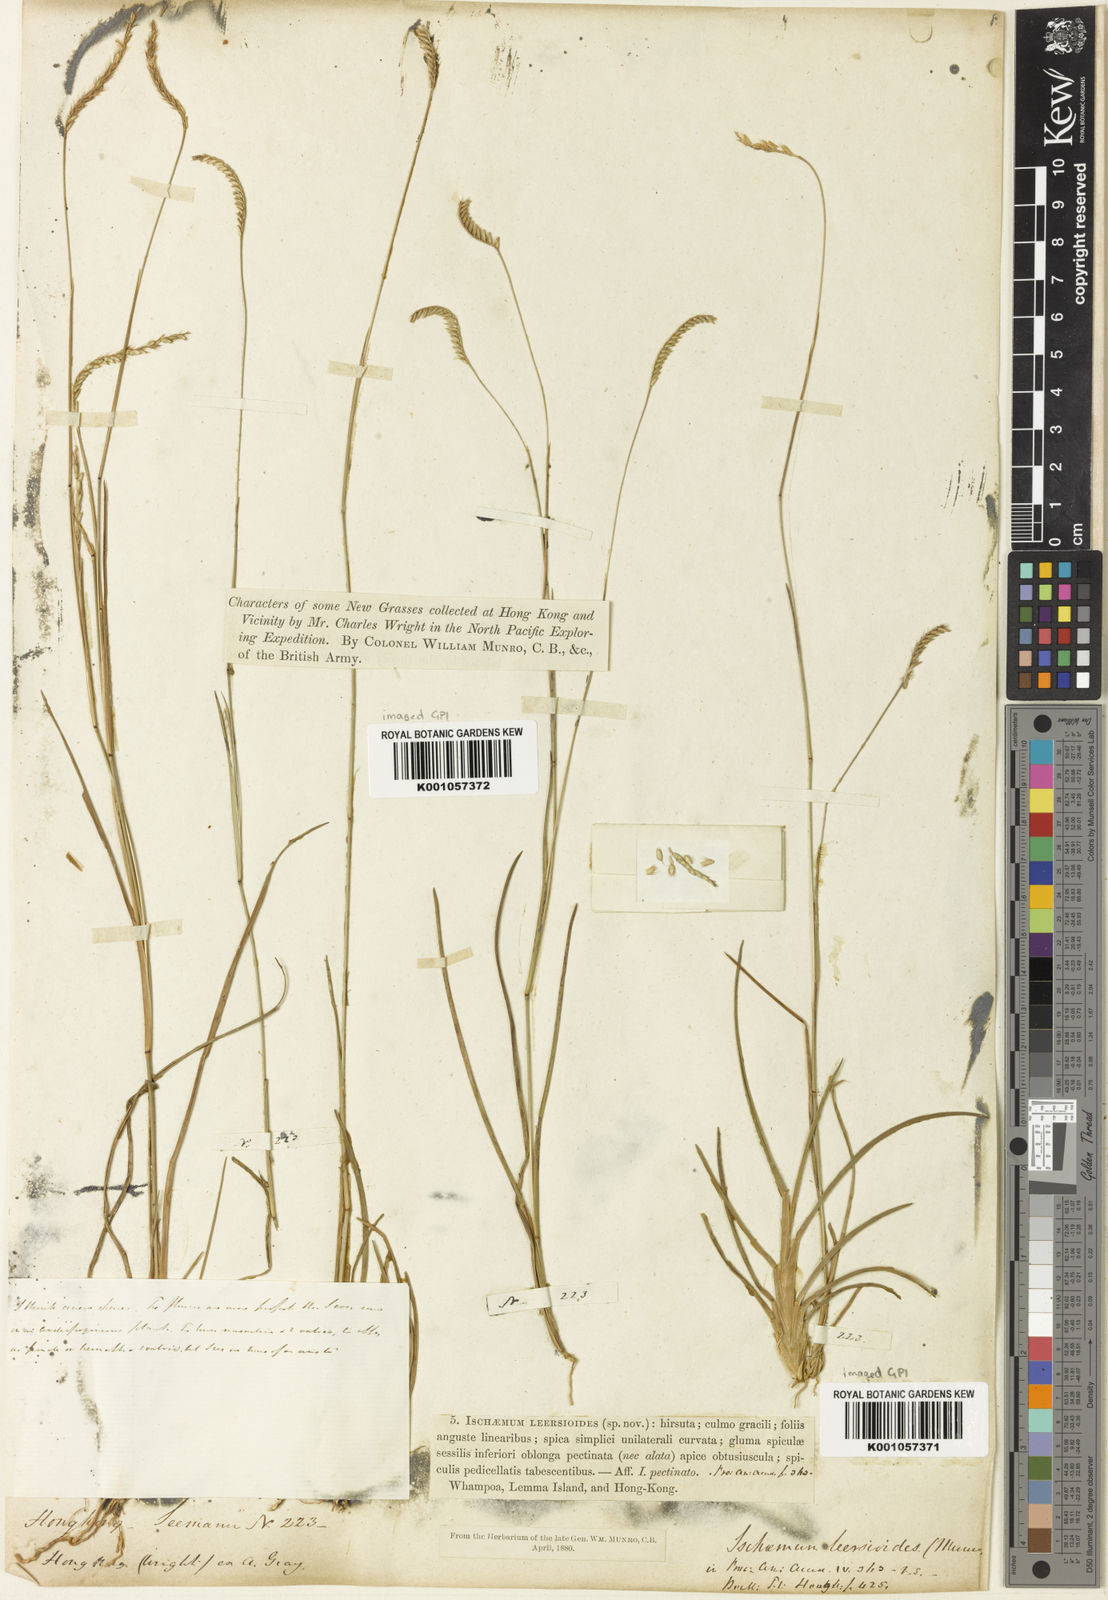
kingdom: Plantae
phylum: Tracheophyta
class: Liliopsida
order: Poales
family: Poaceae
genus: Eremochloa
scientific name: Eremochloa ciliaris
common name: Fringed centipede grass
